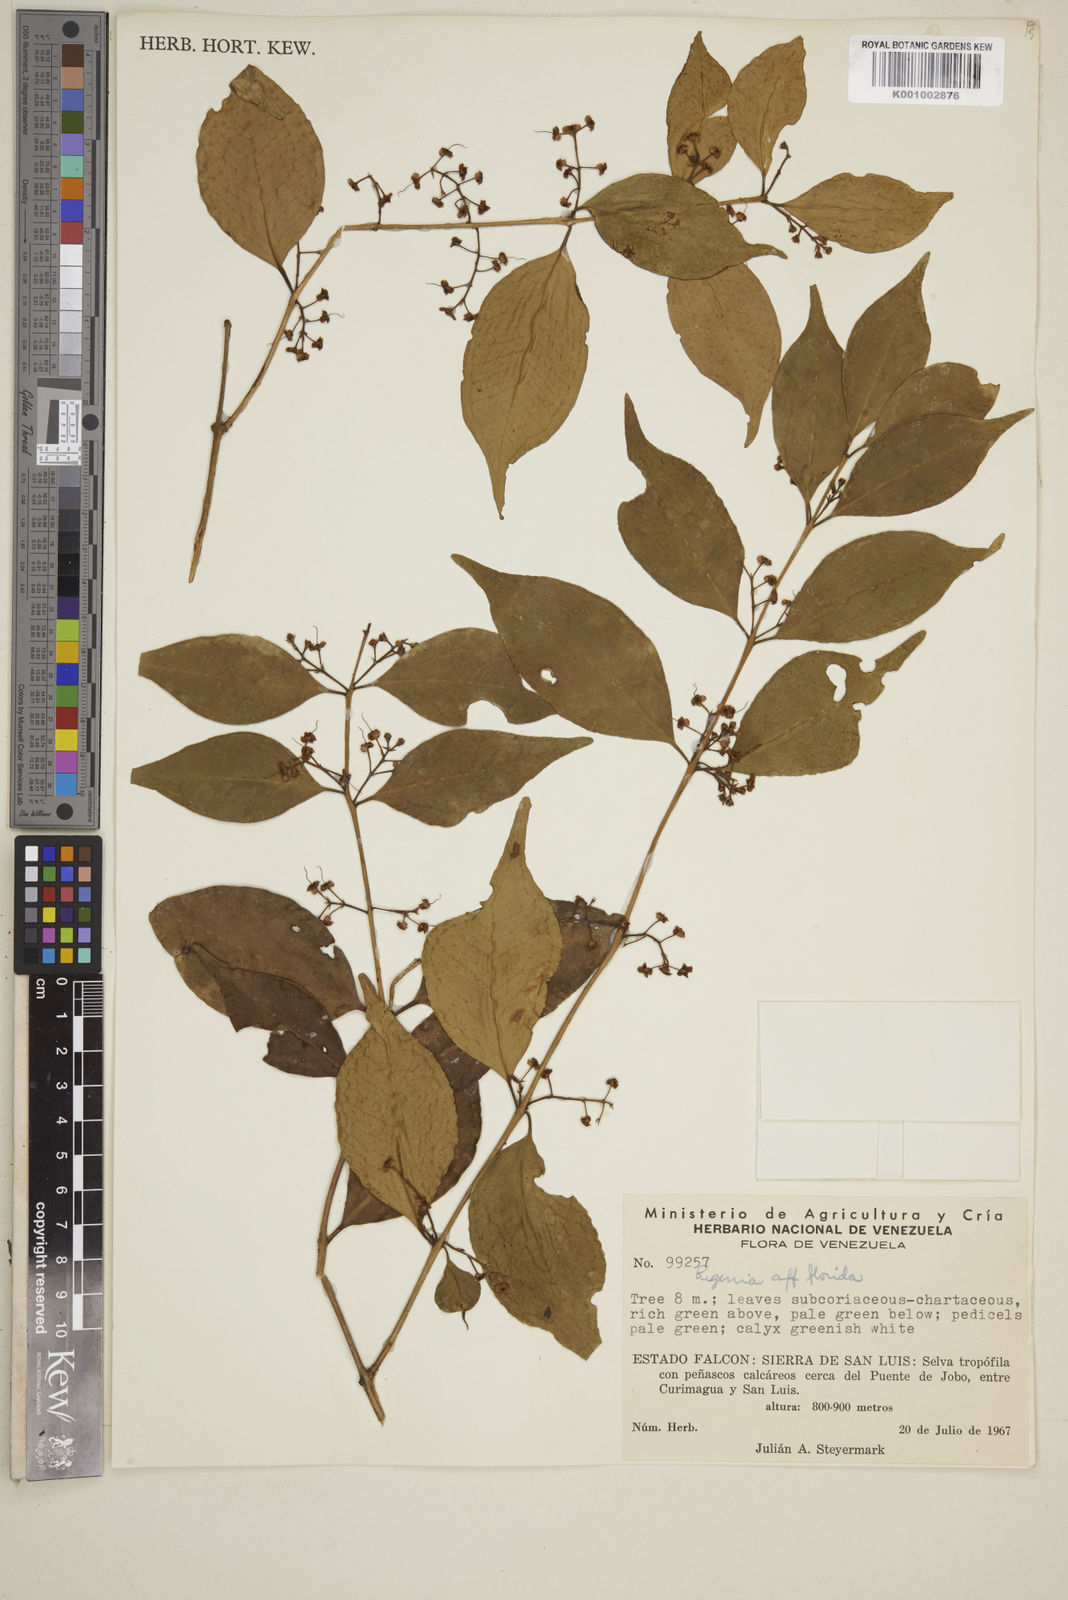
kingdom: Plantae
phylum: Tracheophyta
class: Magnoliopsida
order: Myrtales
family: Myrtaceae
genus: Eugenia
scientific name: Eugenia florida
